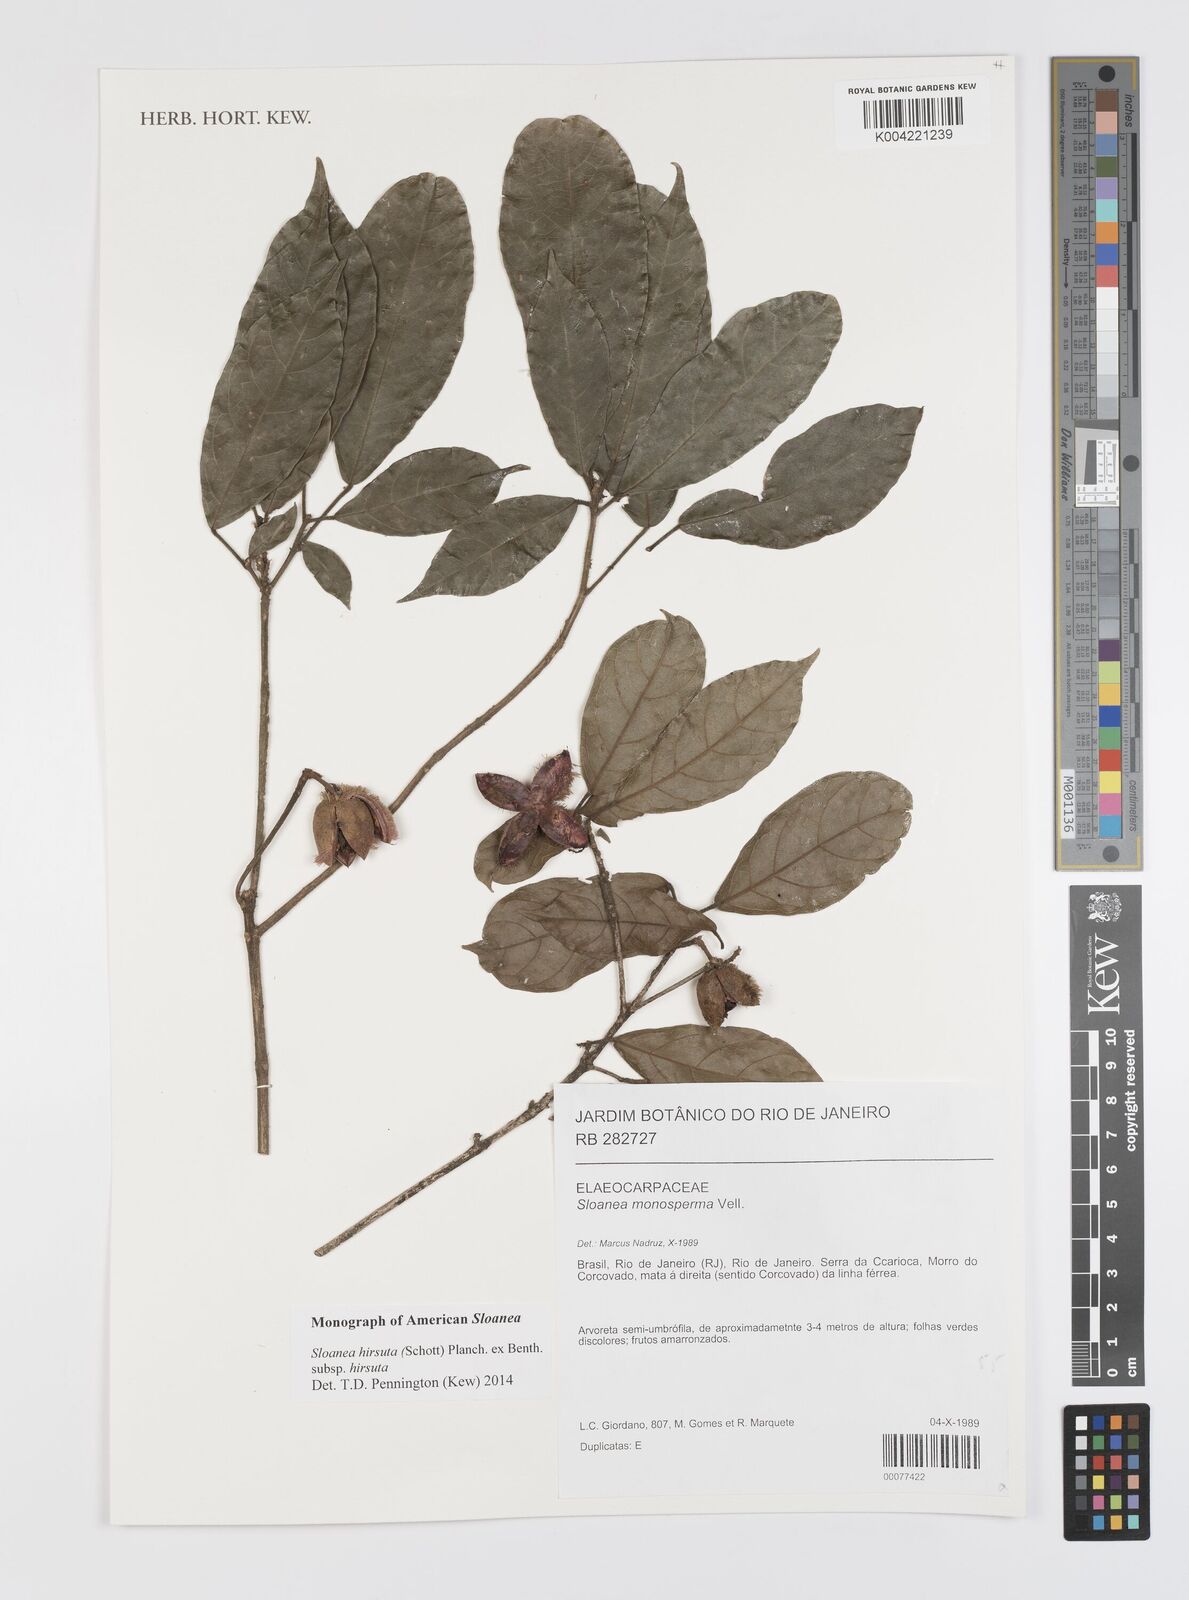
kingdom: Plantae
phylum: Tracheophyta
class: Magnoliopsida
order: Oxalidales
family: Elaeocarpaceae
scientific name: Elaeocarpaceae
